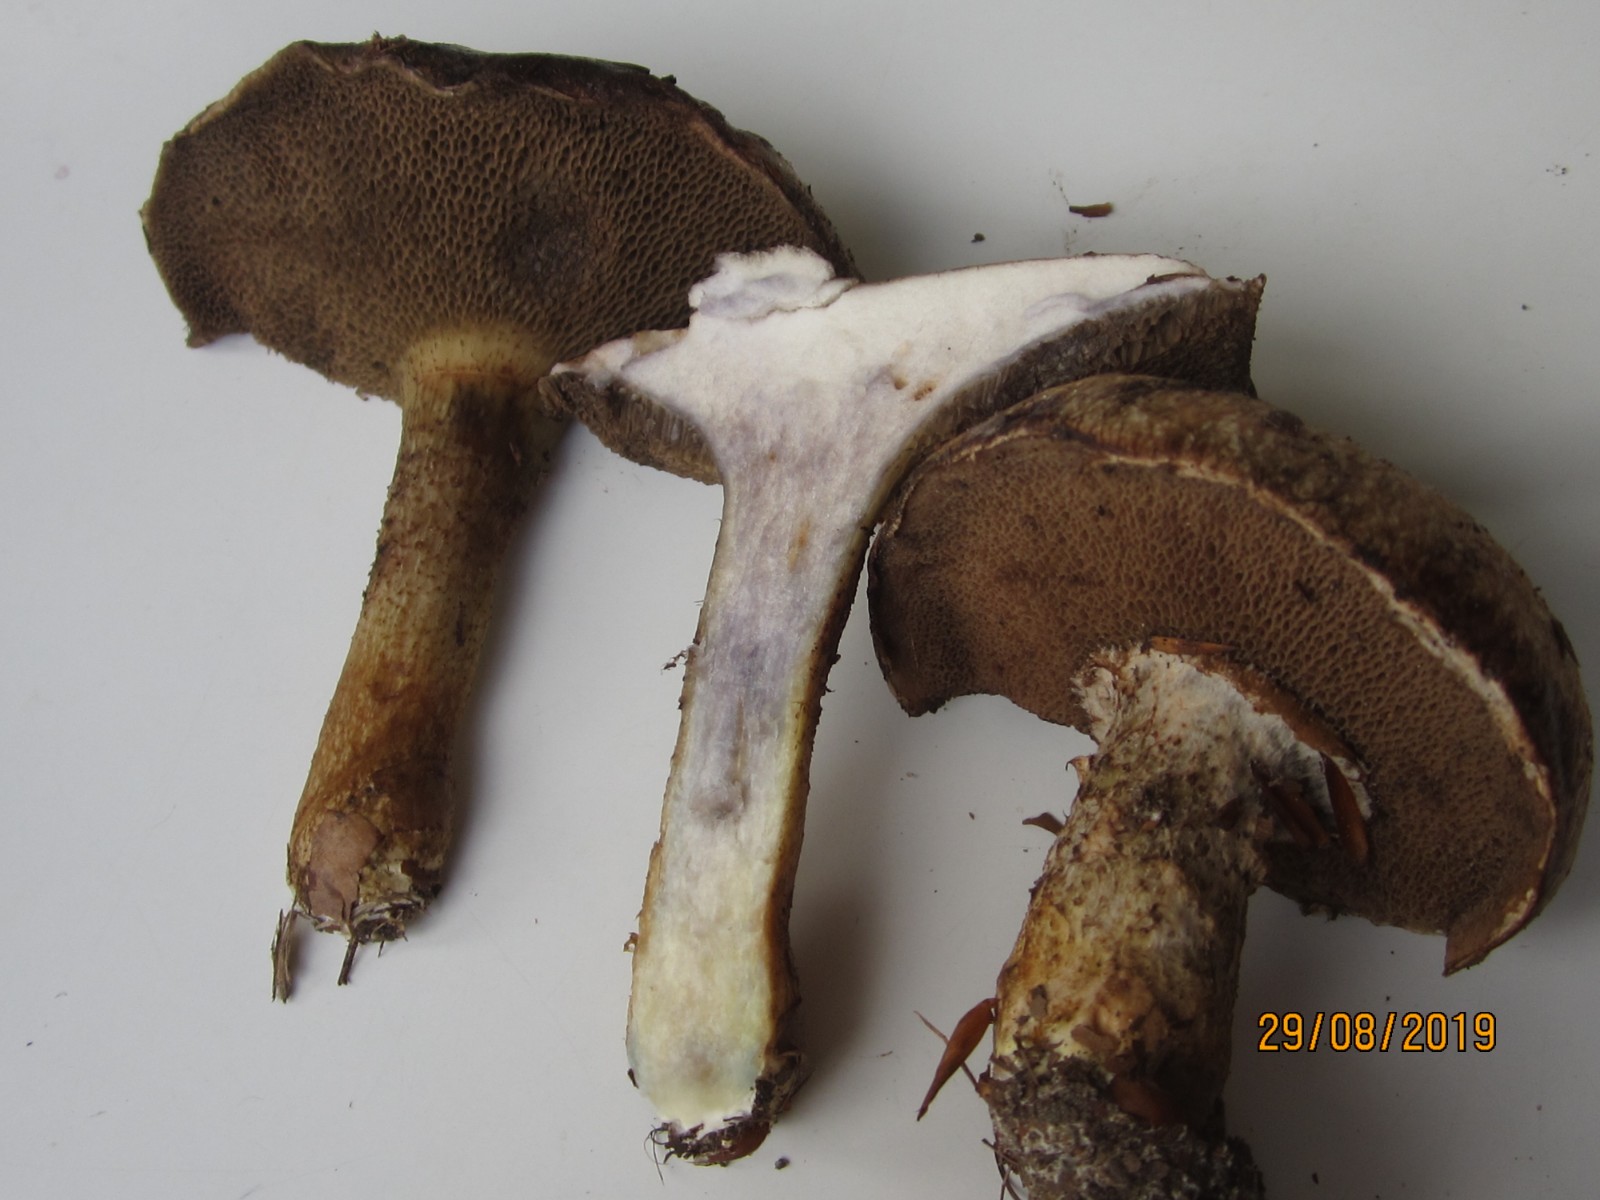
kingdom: Fungi
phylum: Basidiomycota
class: Agaricomycetes
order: Boletales
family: Suillaceae
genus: Suillus
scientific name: Suillus viscidus
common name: olivengrå slimrørhat
